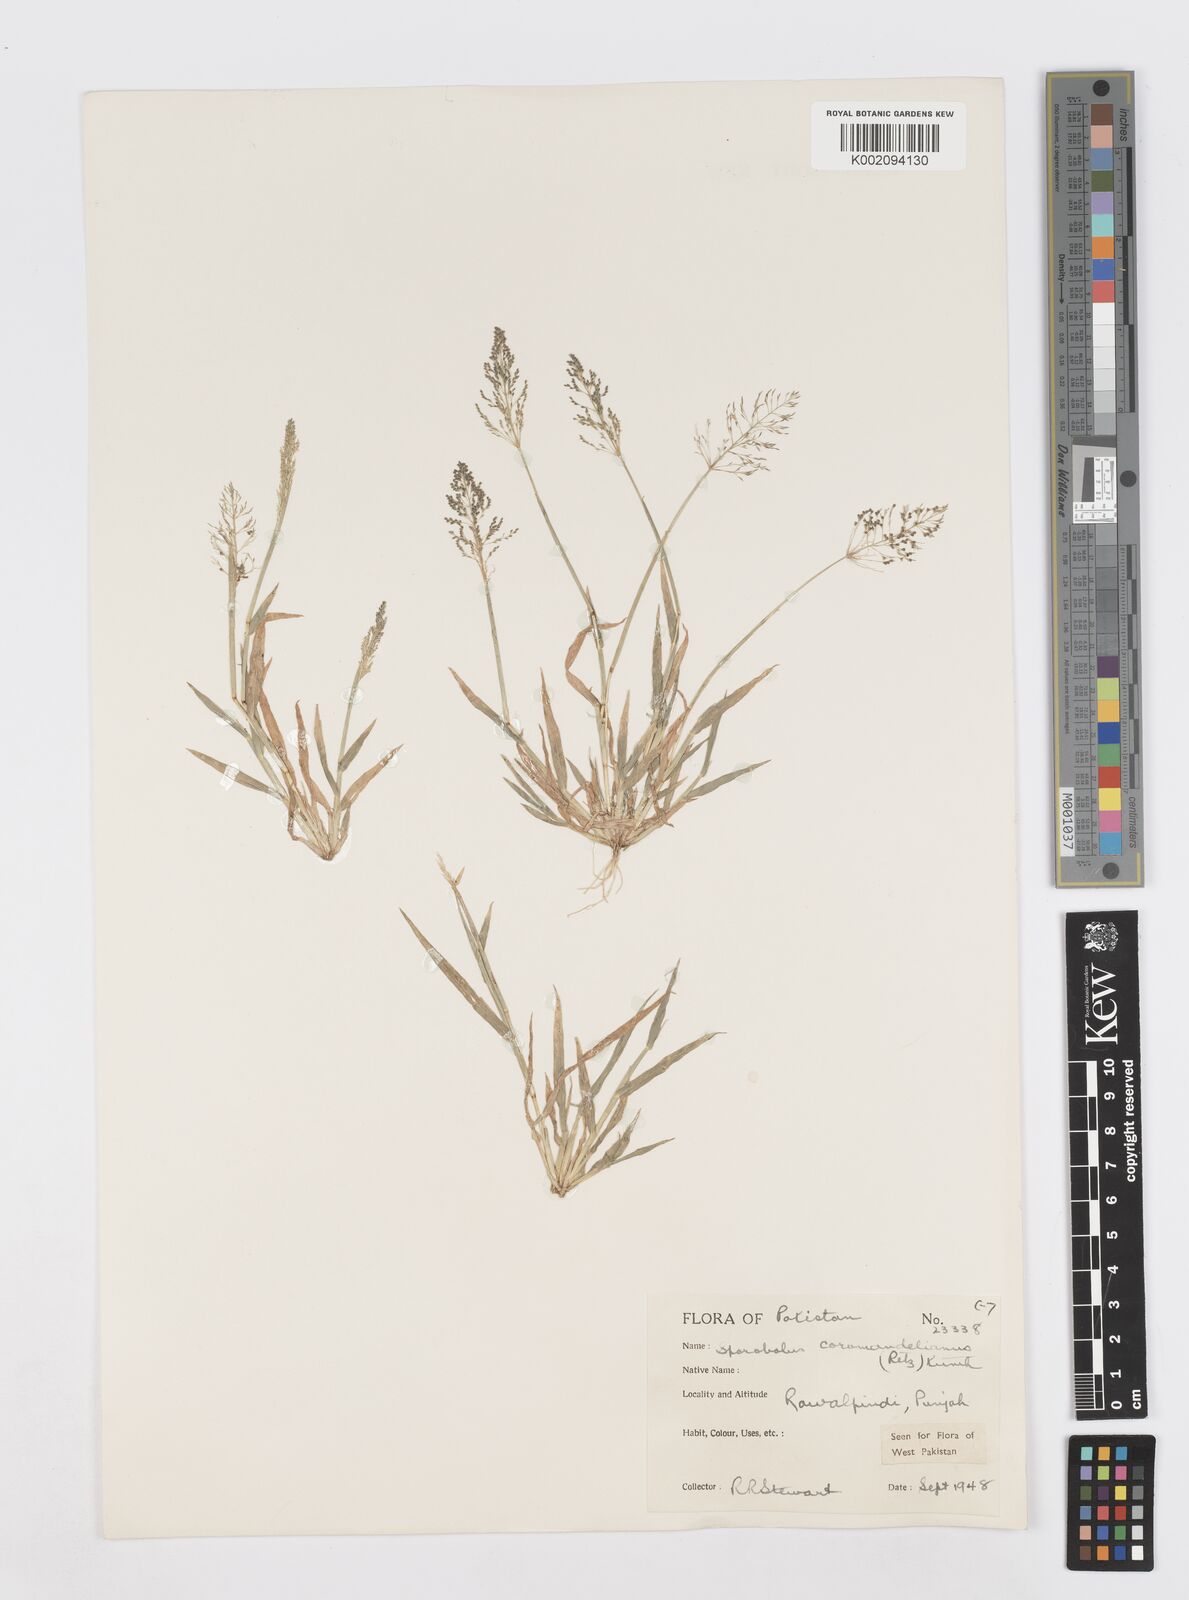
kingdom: Plantae
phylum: Tracheophyta
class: Liliopsida
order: Poales
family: Poaceae
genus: Sporobolus
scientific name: Sporobolus coromandelianus
